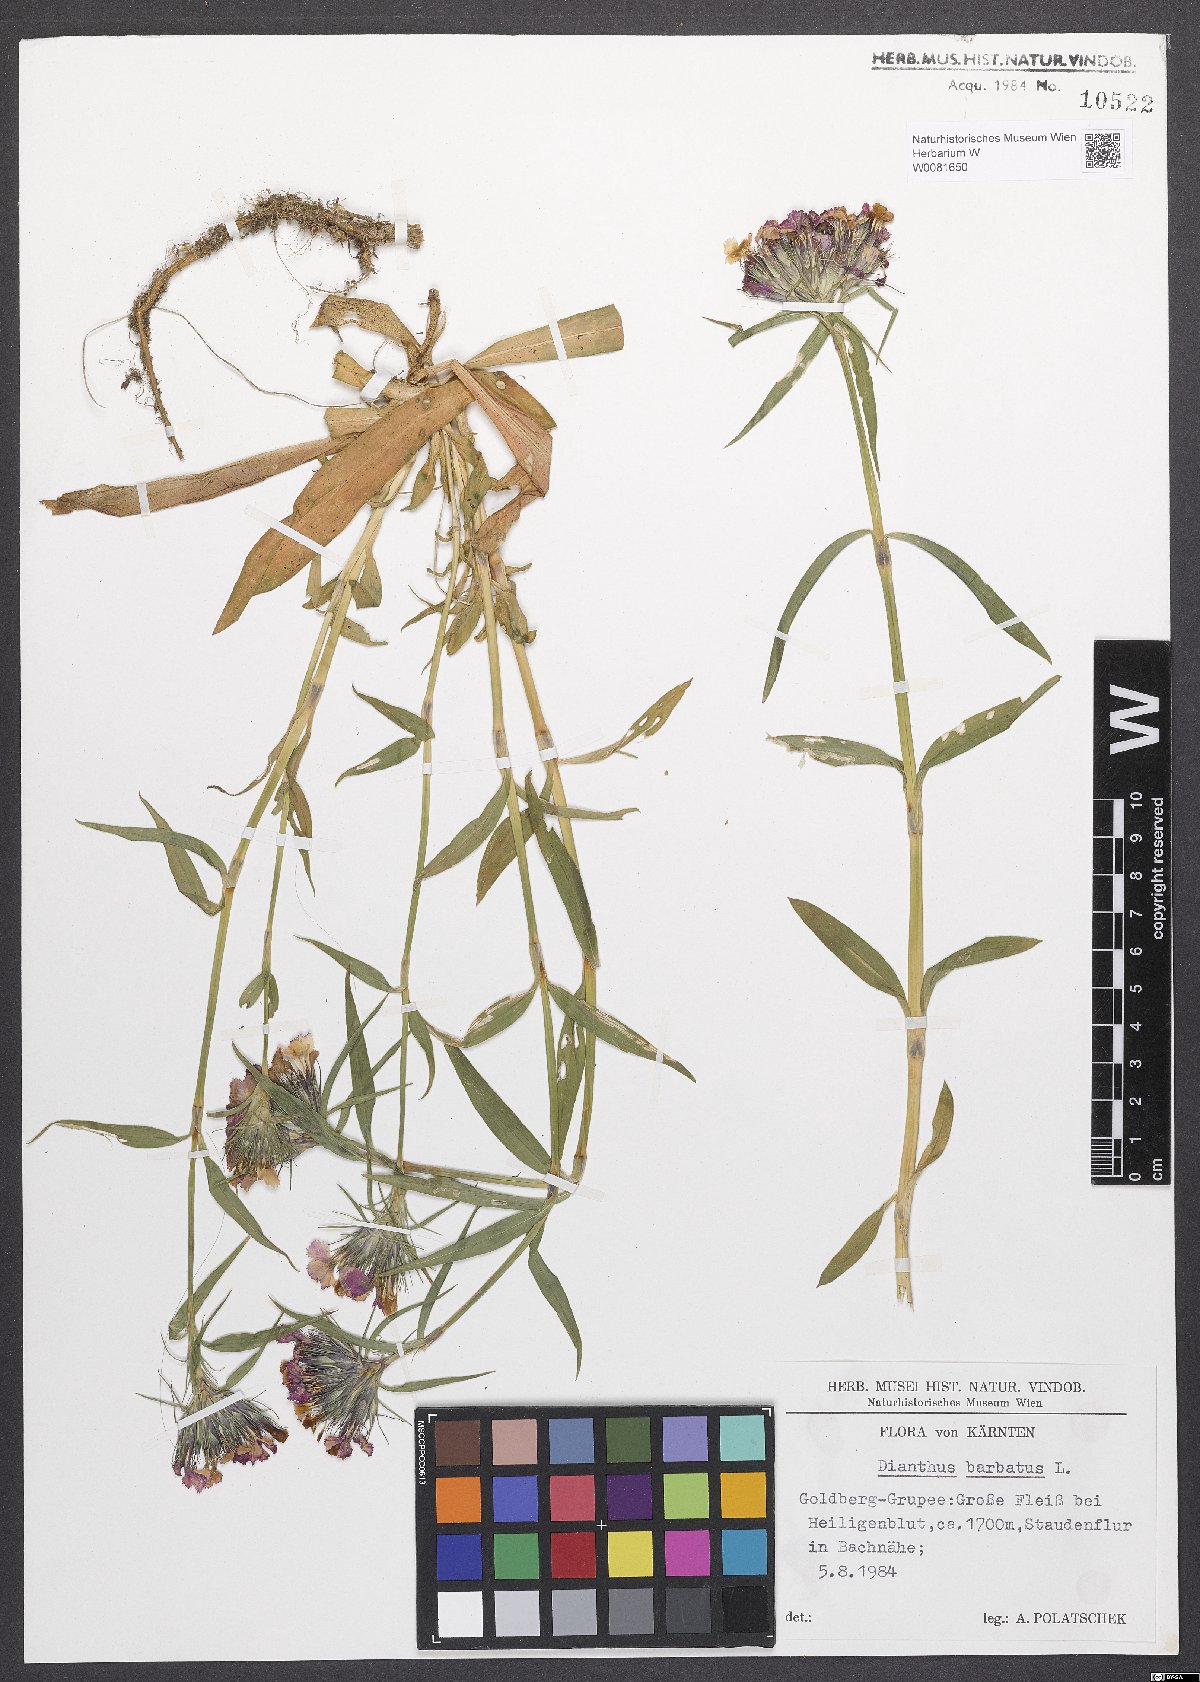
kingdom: Plantae
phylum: Tracheophyta
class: Magnoliopsida
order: Caryophyllales
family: Caryophyllaceae
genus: Dianthus
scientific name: Dianthus barbatus
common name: Sweet-william
